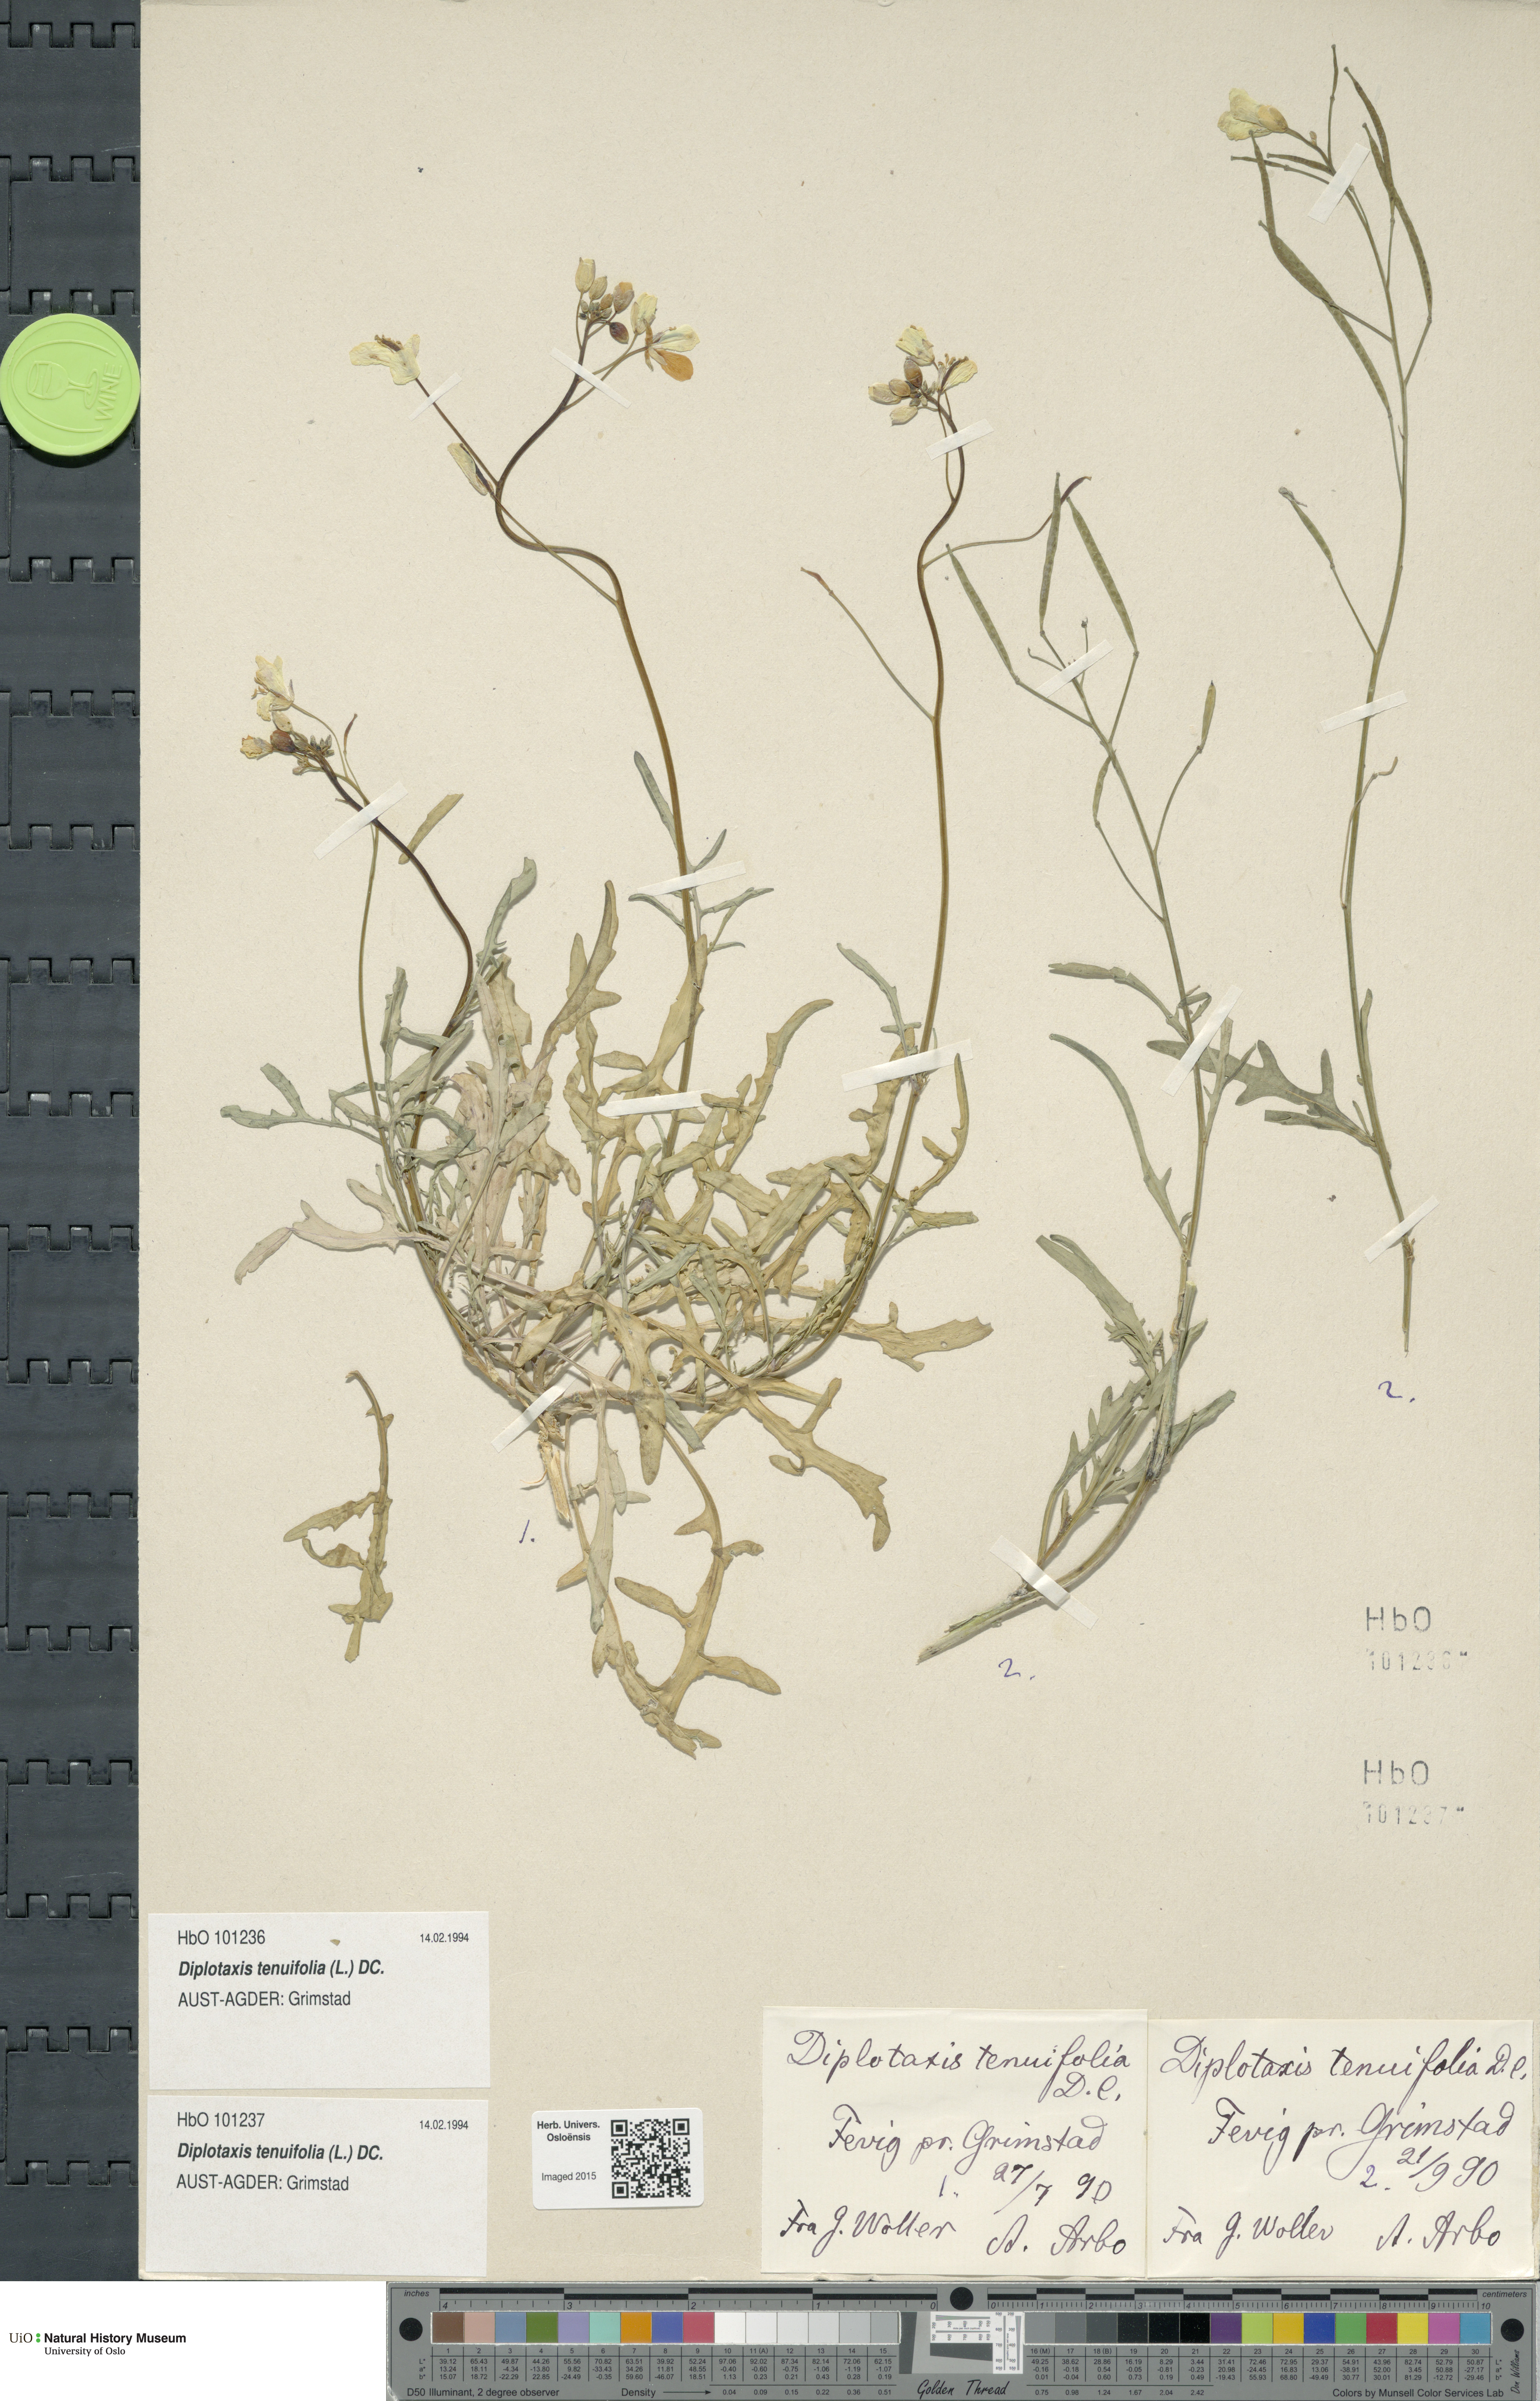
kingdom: Plantae
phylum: Tracheophyta
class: Magnoliopsida
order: Brassicales
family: Brassicaceae
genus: Diplotaxis
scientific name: Diplotaxis tenuifolia
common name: Perennial wall-rocket
